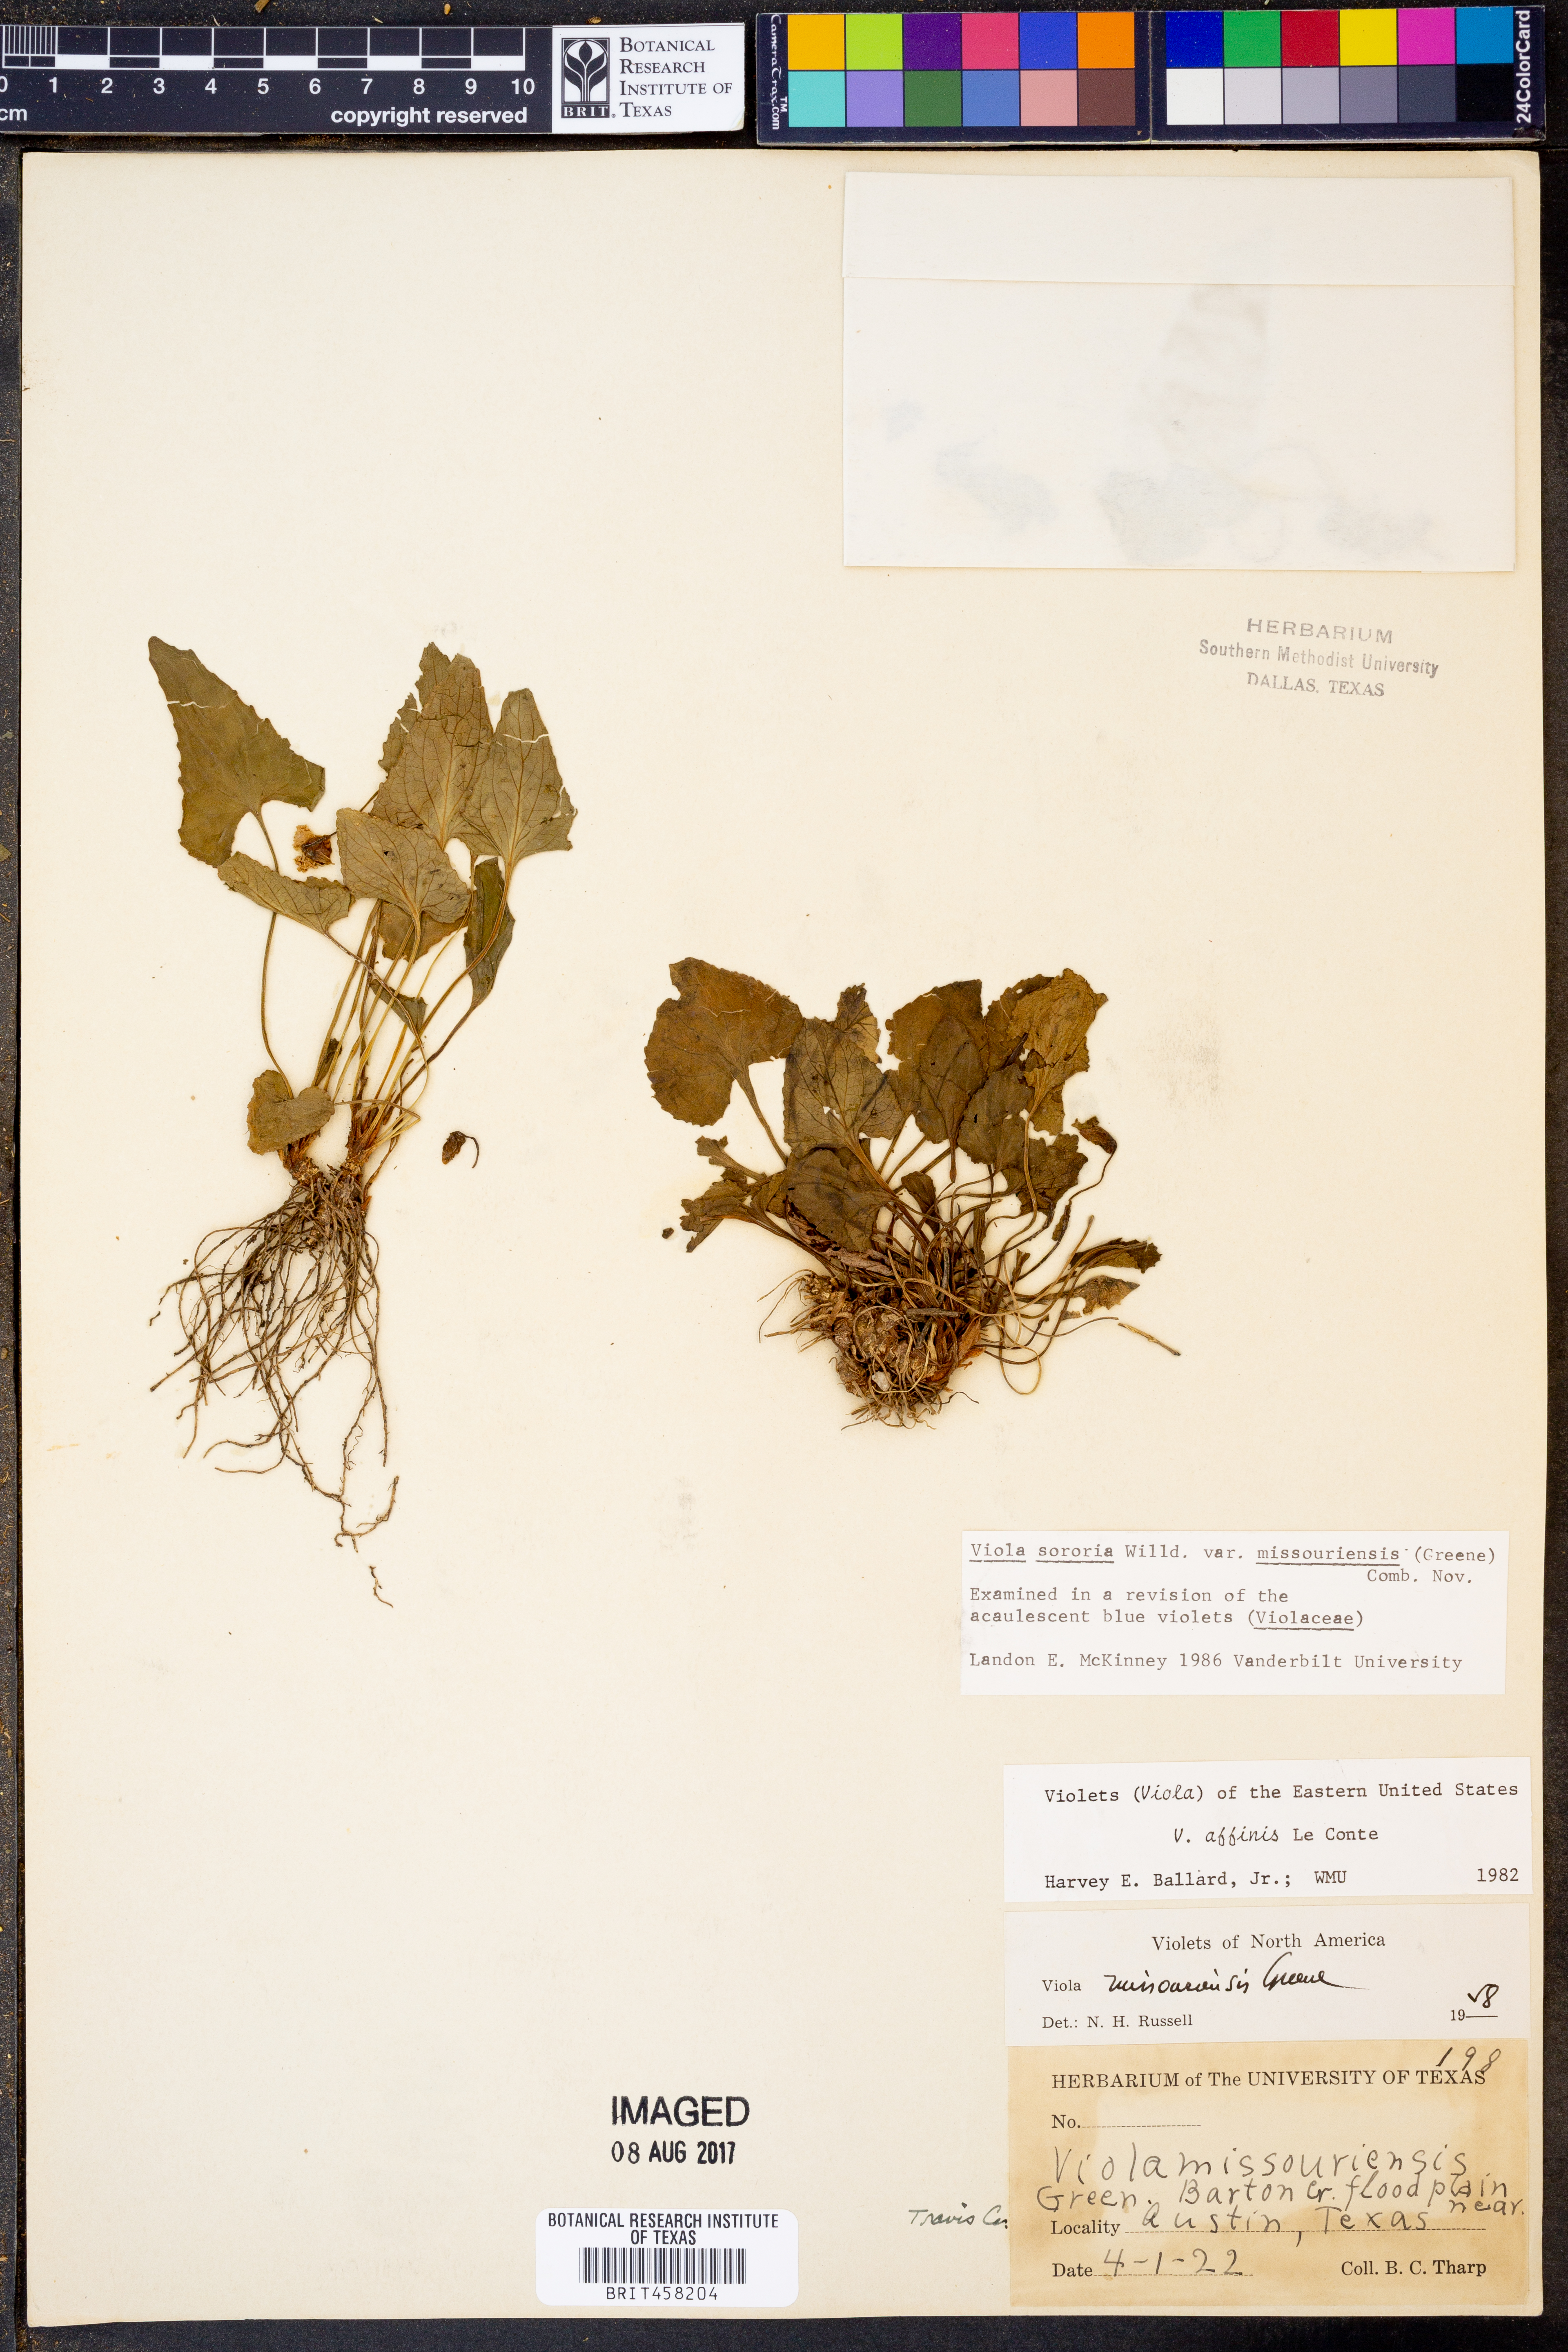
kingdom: Plantae
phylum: Tracheophyta
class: Magnoliopsida
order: Malpighiales
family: Violaceae
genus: Viola
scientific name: Viola missouriensis
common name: Missouri violet
